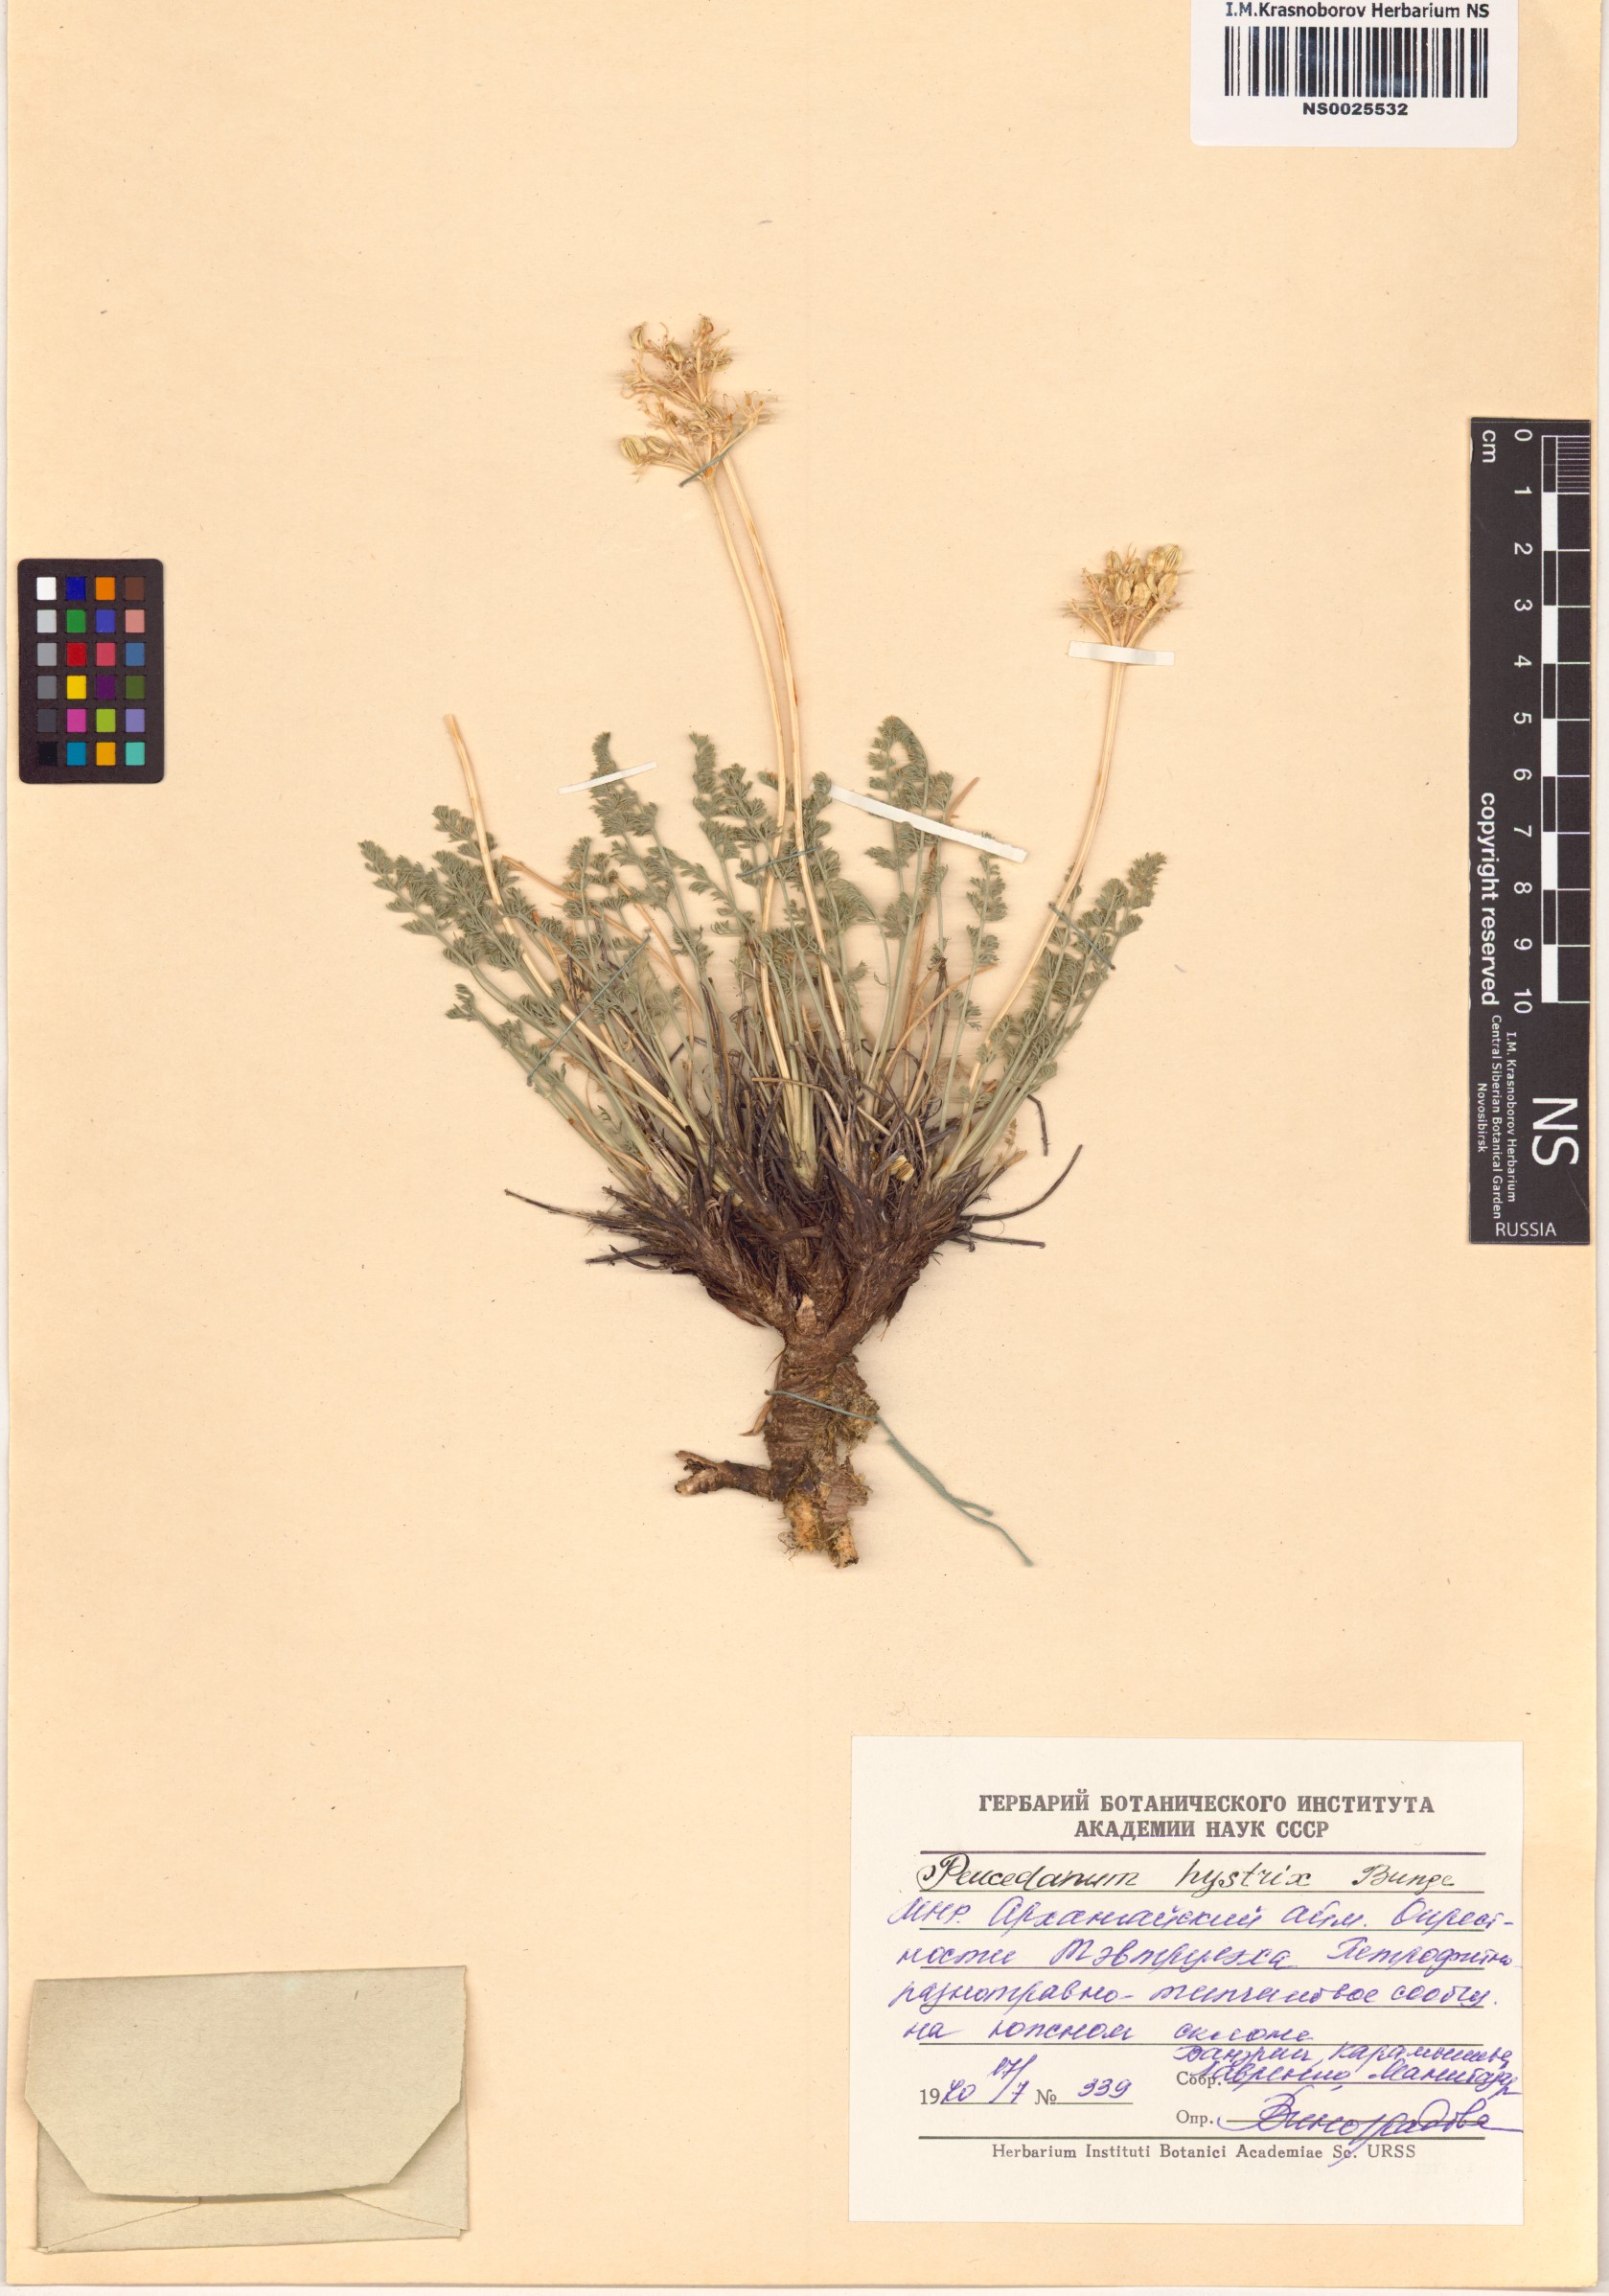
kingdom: Plantae
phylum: Tracheophyta
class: Magnoliopsida
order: Apiales
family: Apiaceae
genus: Ferulopsis
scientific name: Ferulopsis hystrix
